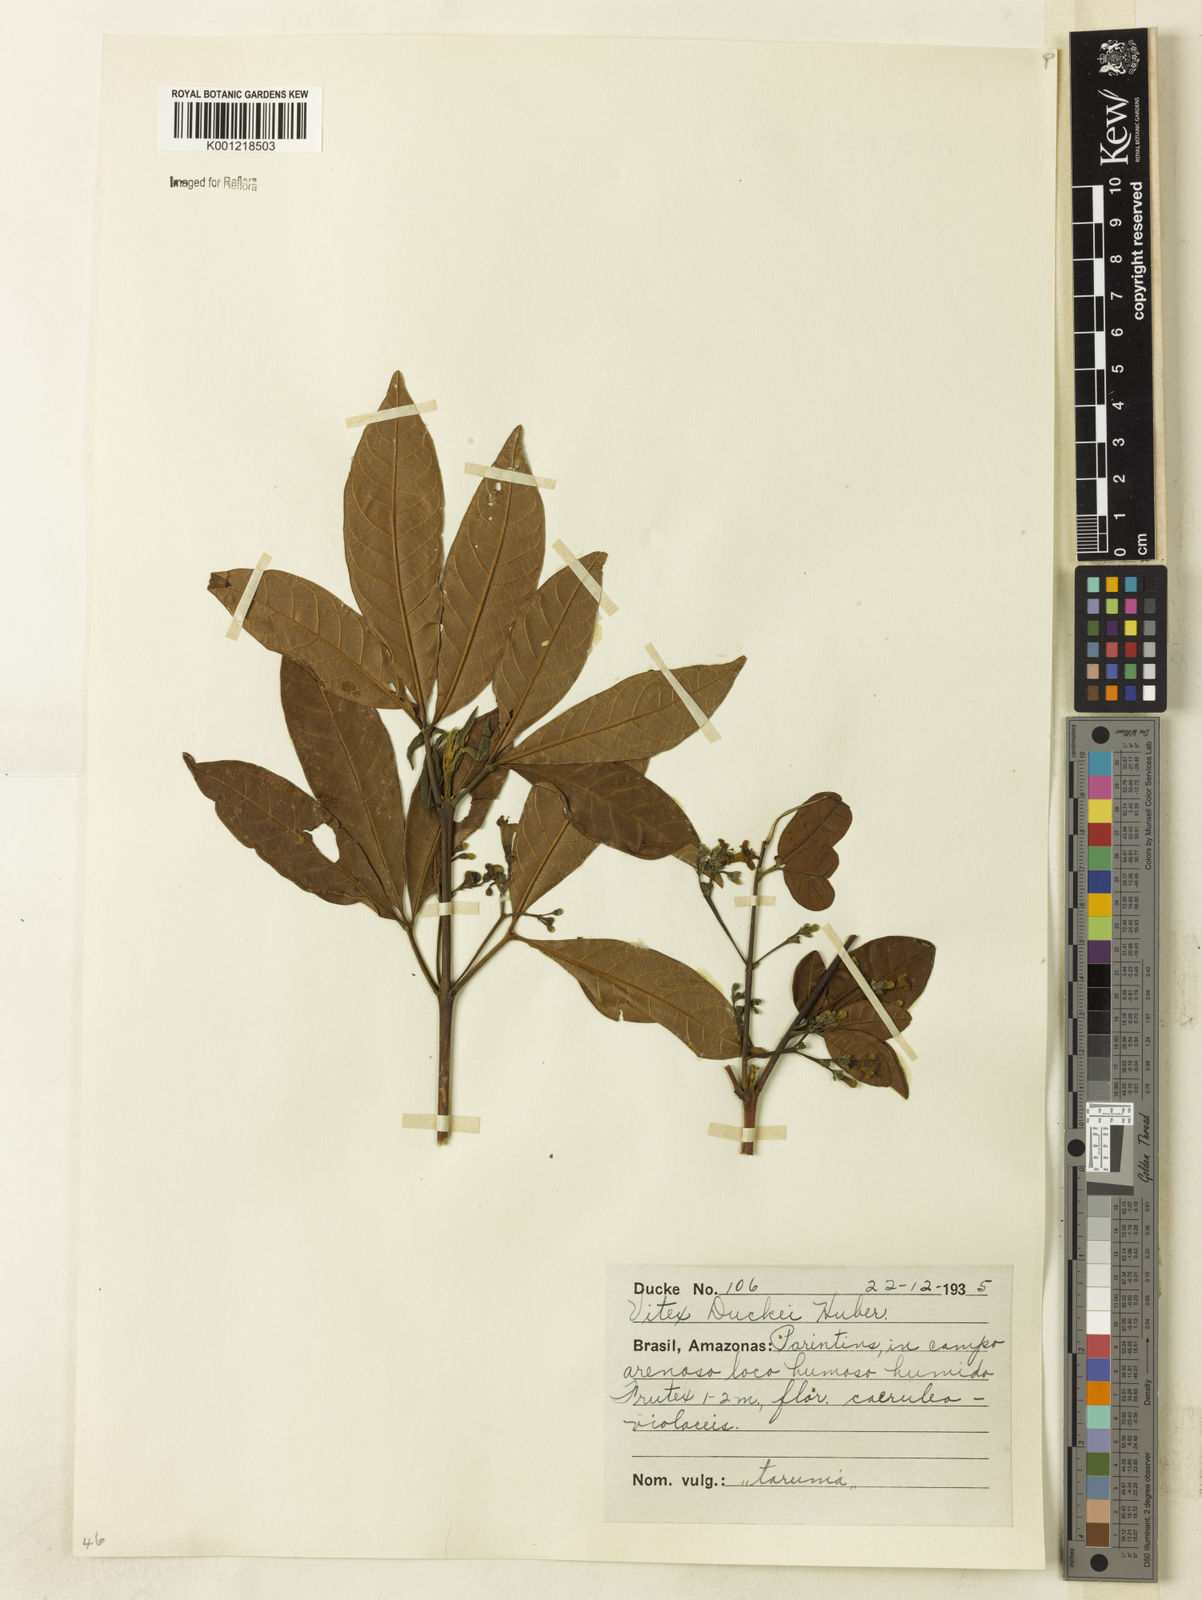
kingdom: Plantae
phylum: Tracheophyta
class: Magnoliopsida
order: Lamiales
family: Lamiaceae
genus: Vitex
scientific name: Vitex duckei
